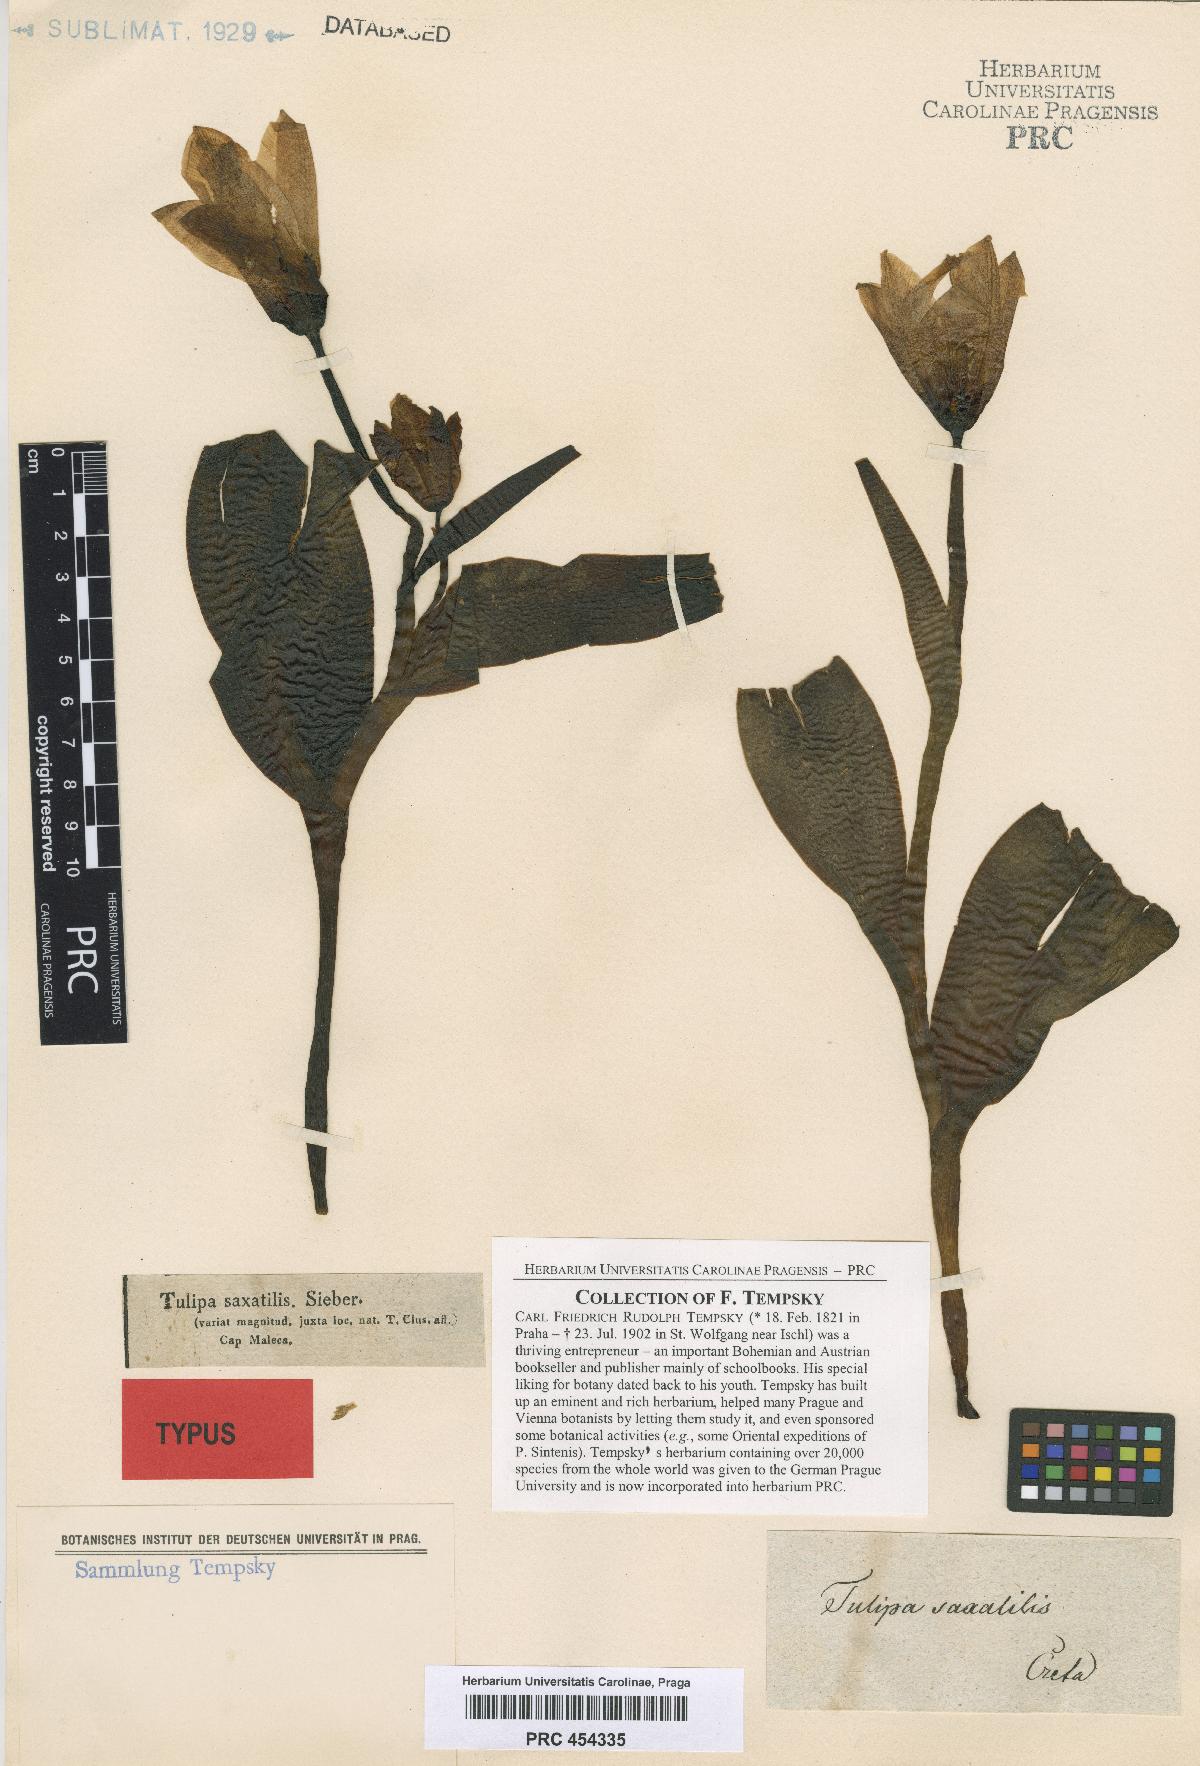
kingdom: Plantae
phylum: Tracheophyta
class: Liliopsida
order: Liliales
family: Liliaceae
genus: Tulipa
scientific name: Tulipa saxatilis
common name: Cretan tulip
